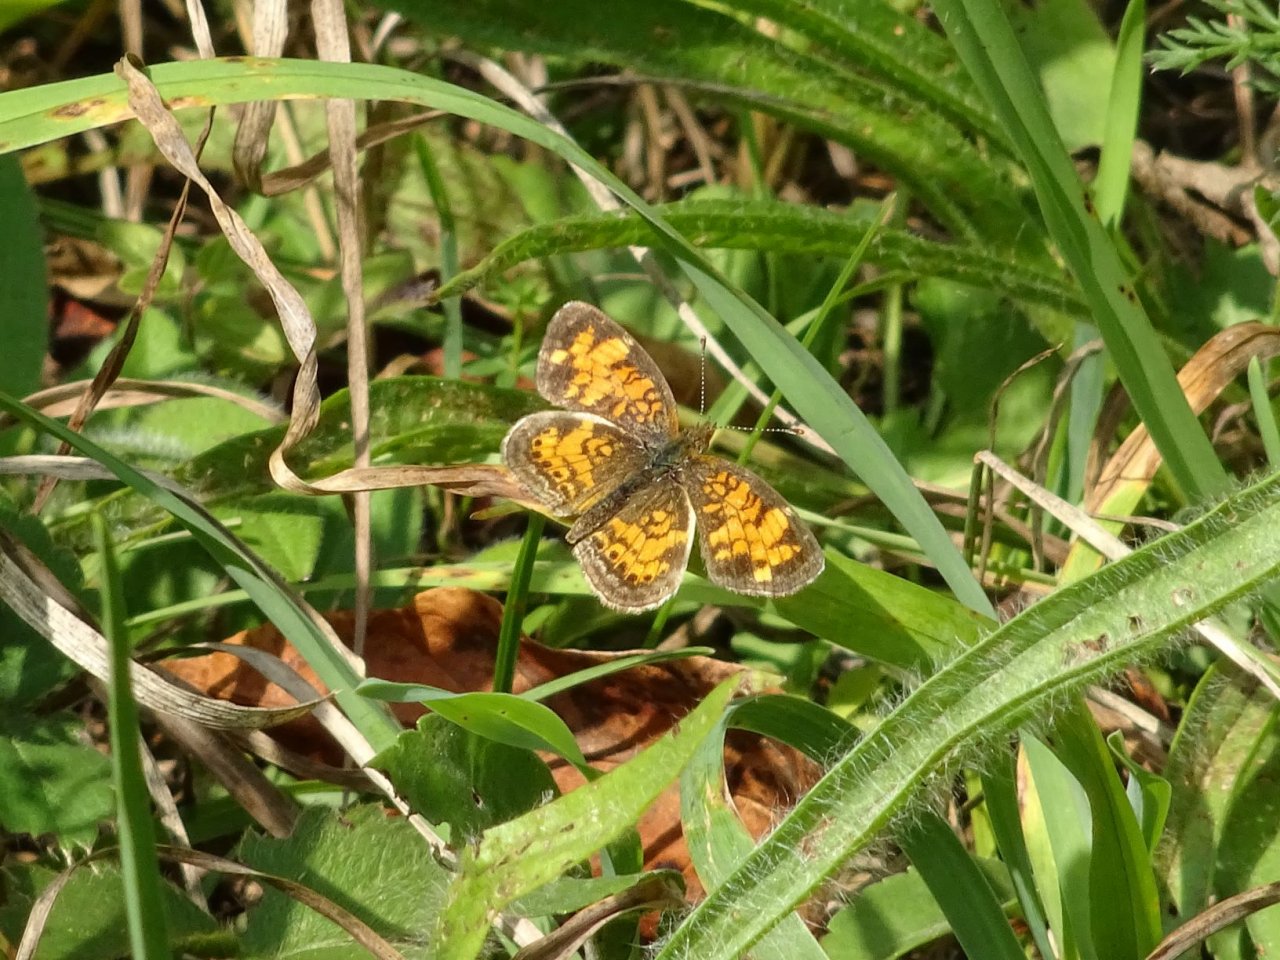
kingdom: Animalia
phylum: Arthropoda
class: Insecta
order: Lepidoptera
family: Nymphalidae
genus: Phyciodes
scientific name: Phyciodes
